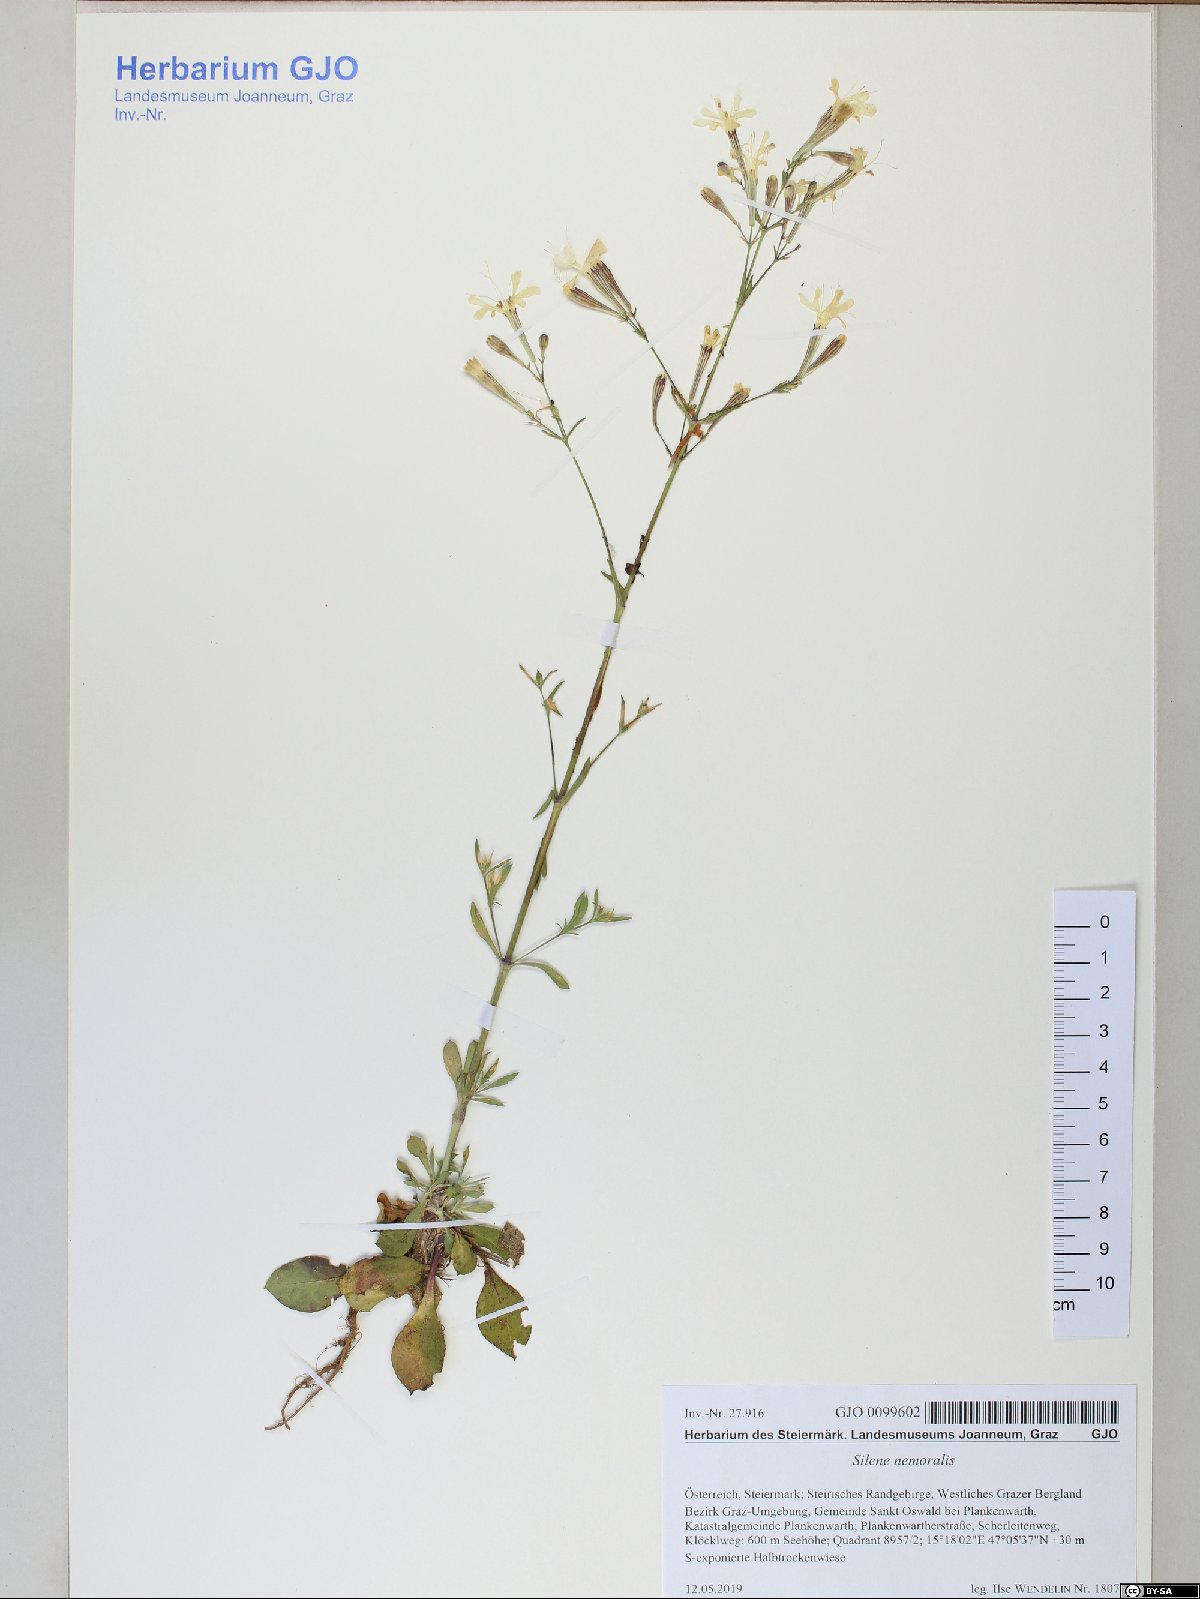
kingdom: Plantae
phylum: Tracheophyta
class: Magnoliopsida
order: Caryophyllales
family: Caryophyllaceae
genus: Silene
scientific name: Silene nemoralis
